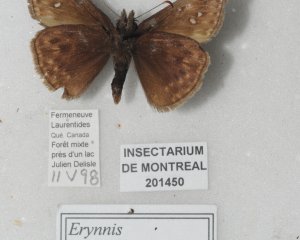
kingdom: Animalia
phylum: Arthropoda
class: Insecta
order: Lepidoptera
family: Hesperiidae
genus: Gesta
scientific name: Gesta
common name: Juvenal's Duskywing
